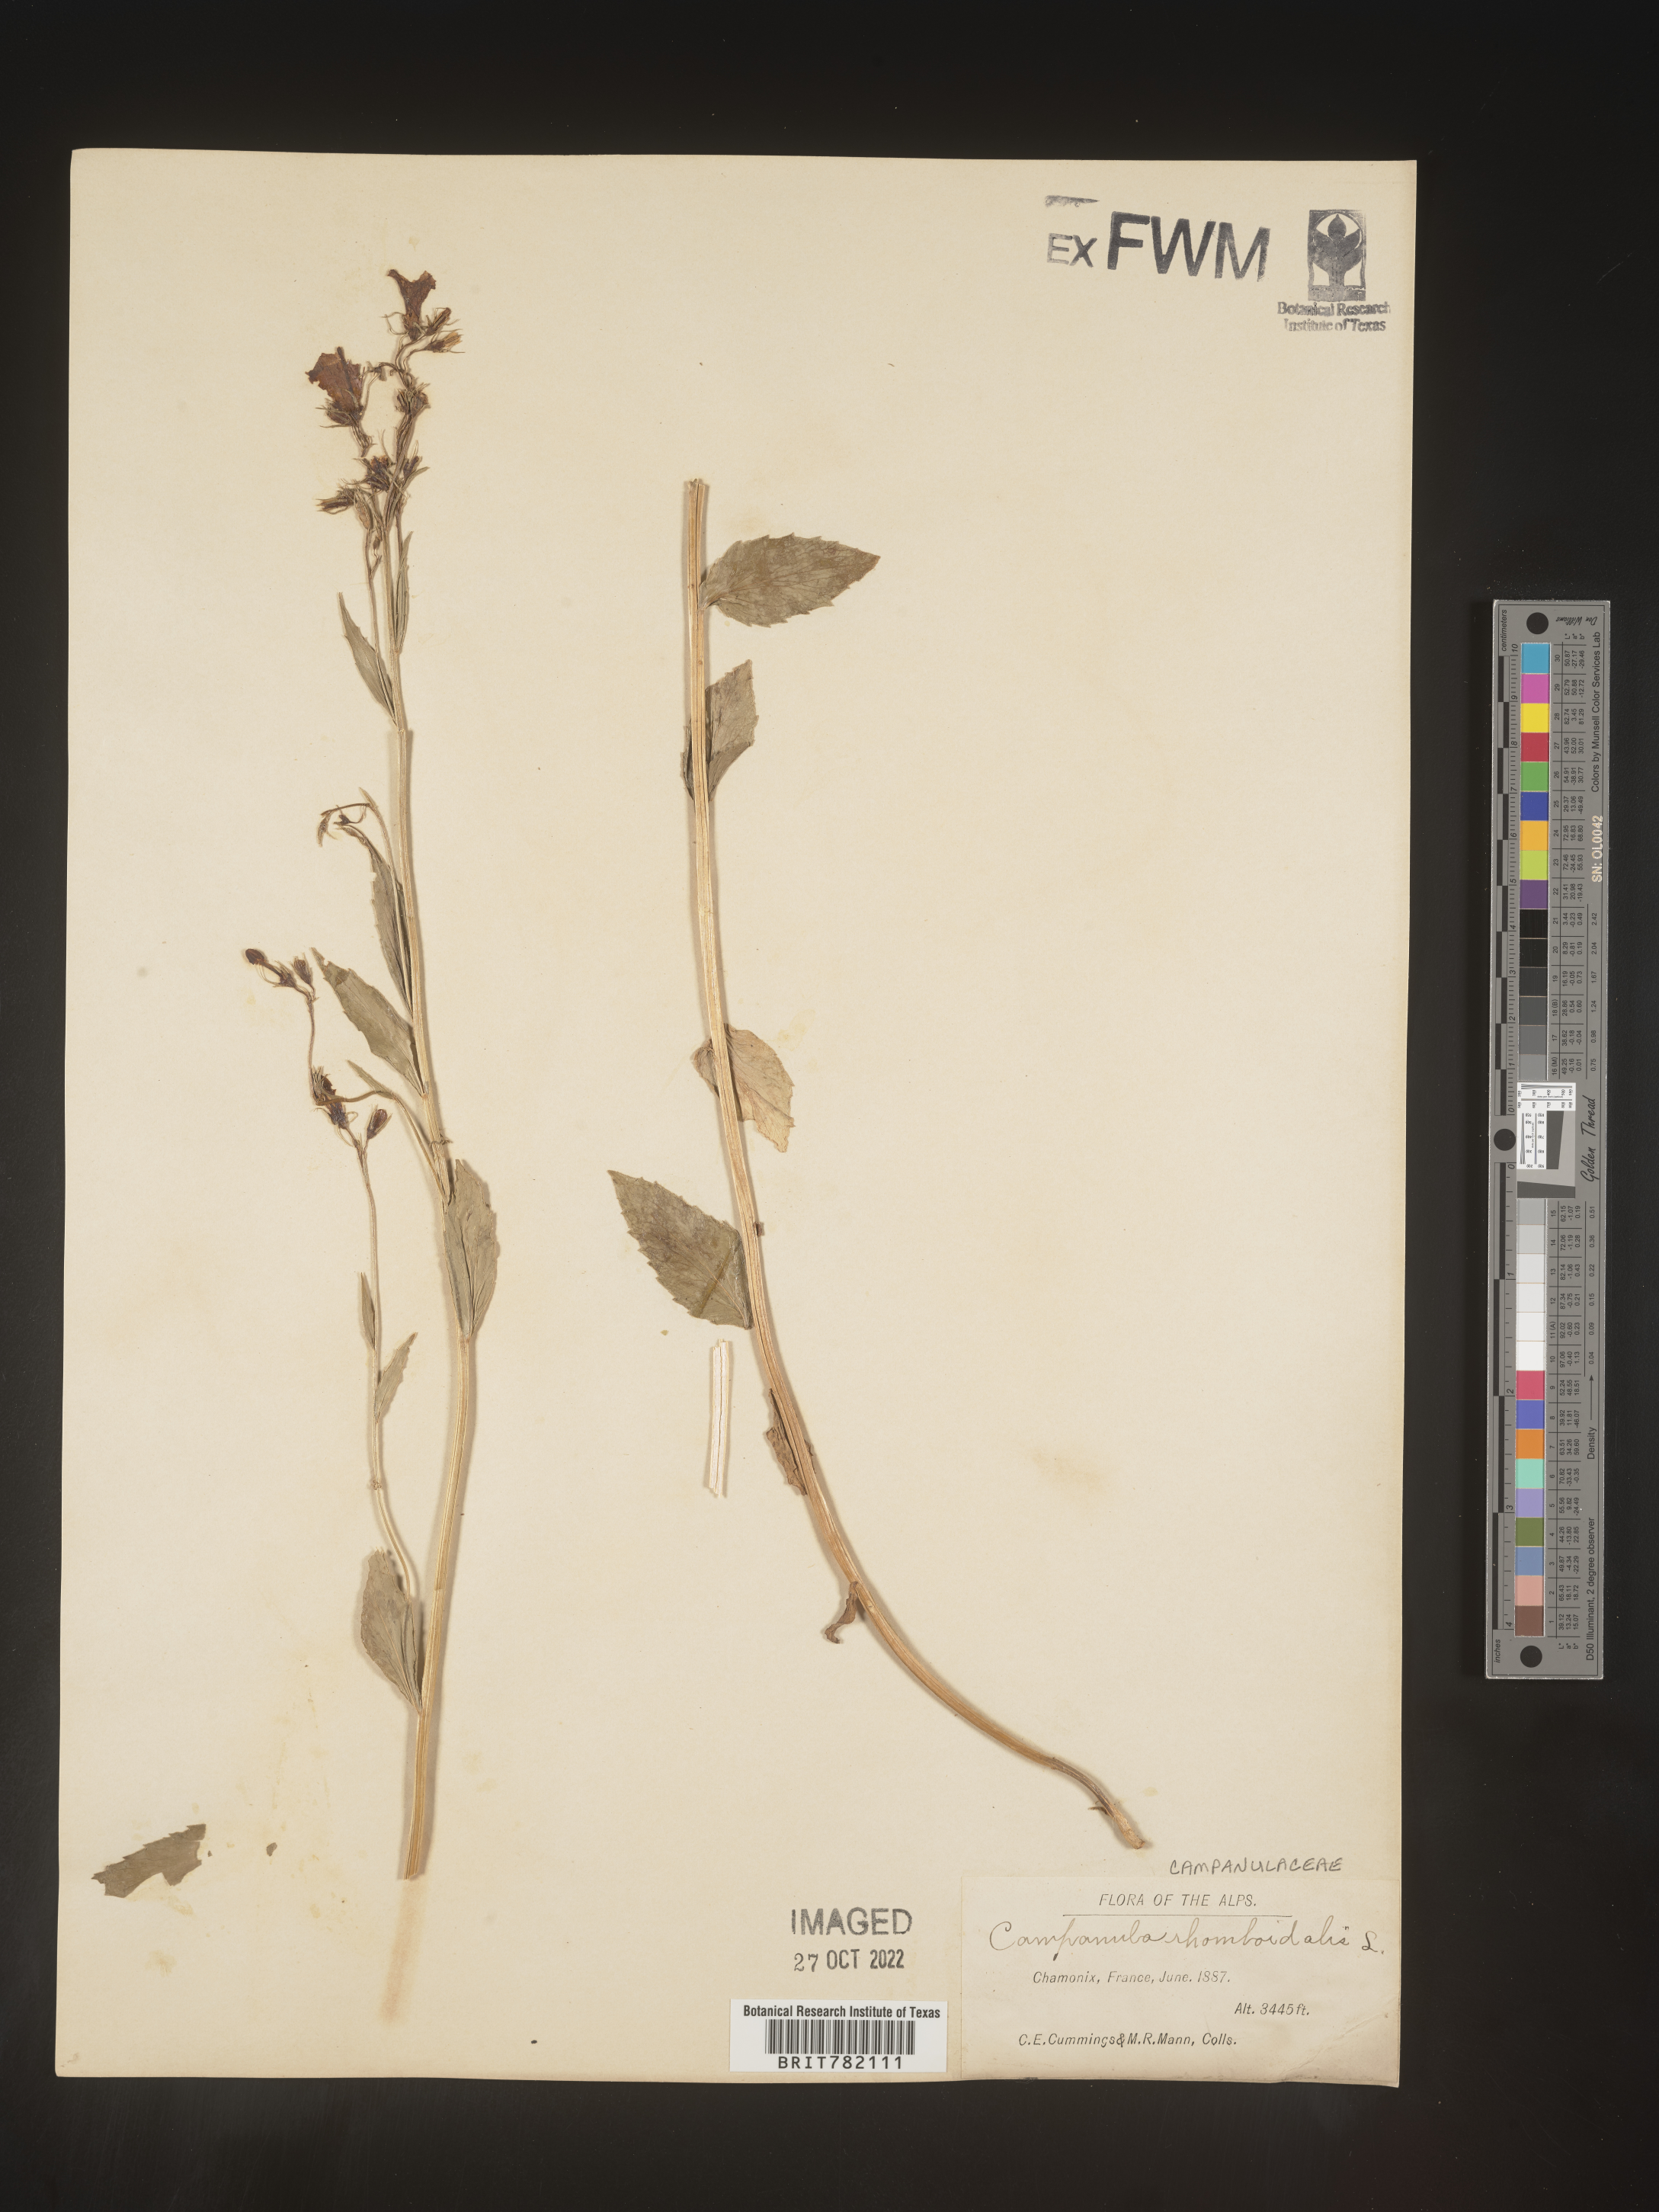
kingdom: Plantae
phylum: Tracheophyta
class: Magnoliopsida
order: Asterales
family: Campanulaceae
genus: Campanula
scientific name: Campanula
